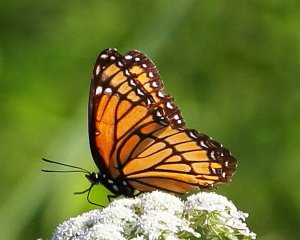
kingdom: Animalia
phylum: Arthropoda
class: Insecta
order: Lepidoptera
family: Nymphalidae
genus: Limenitis
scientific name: Limenitis archippus
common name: Viceroy
